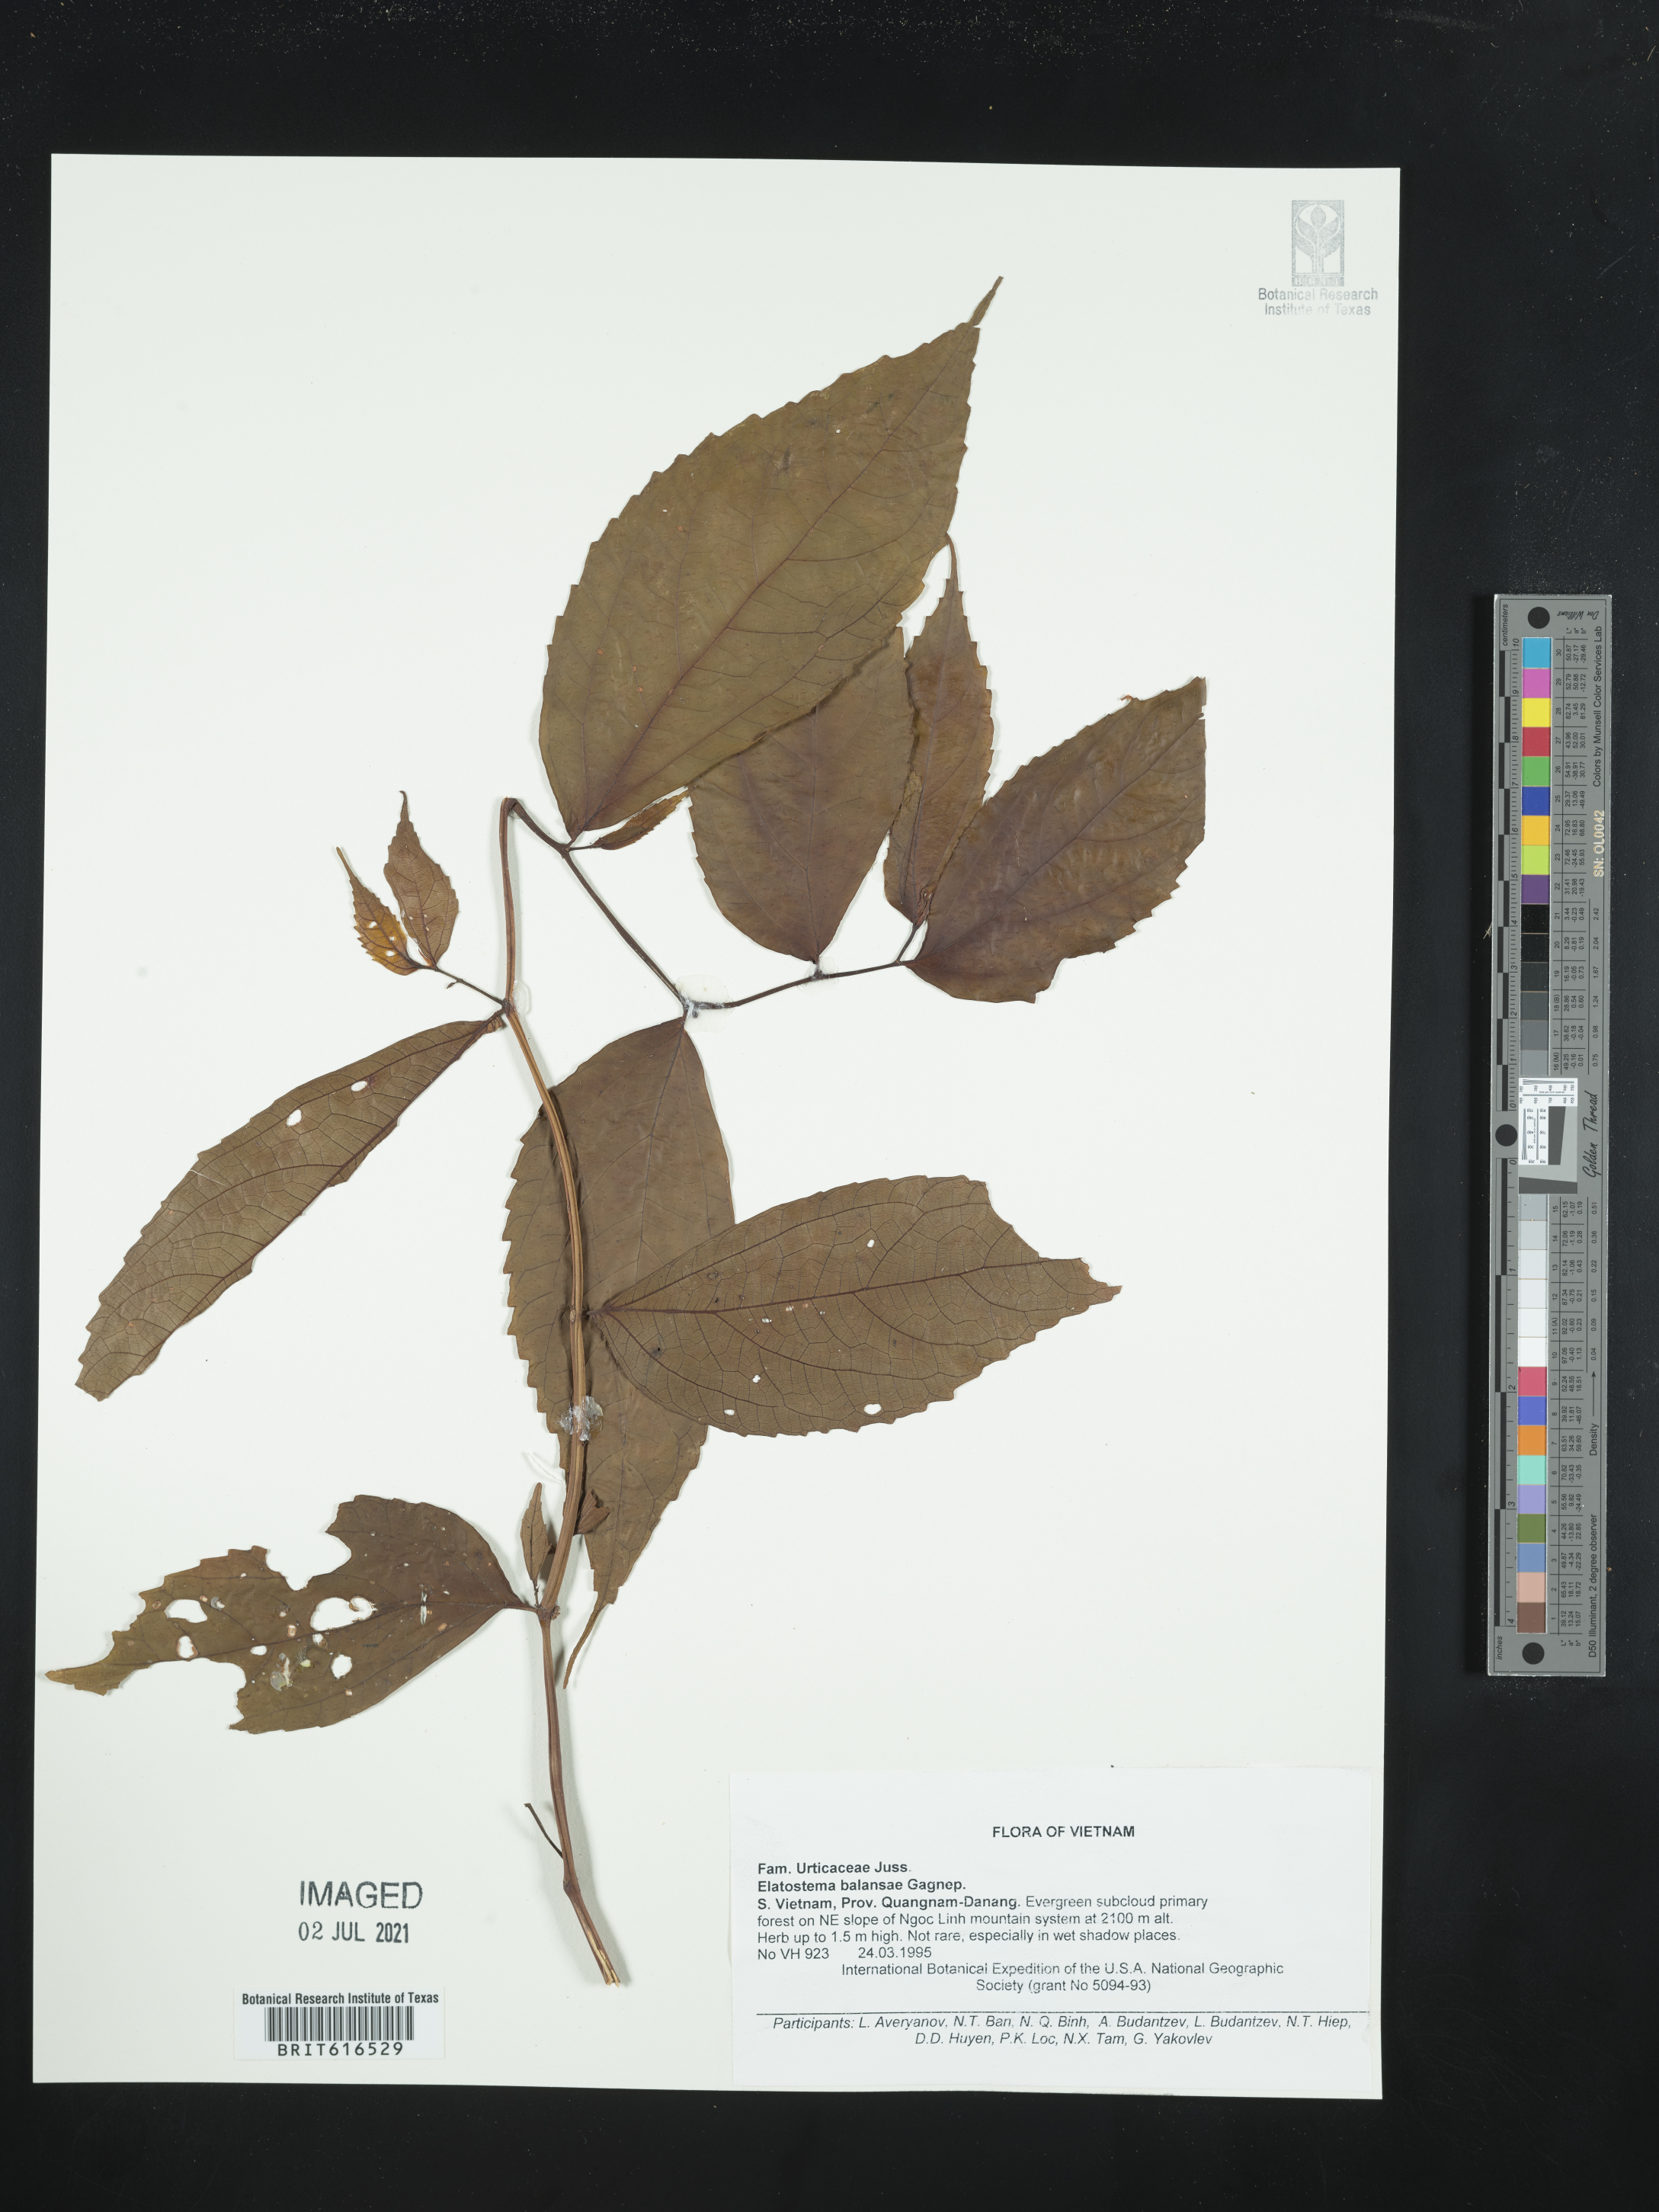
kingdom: Plantae
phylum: Tracheophyta
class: Magnoliopsida
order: Rosales
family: Urticaceae
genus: Elatostema
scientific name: Elatostema balansae
